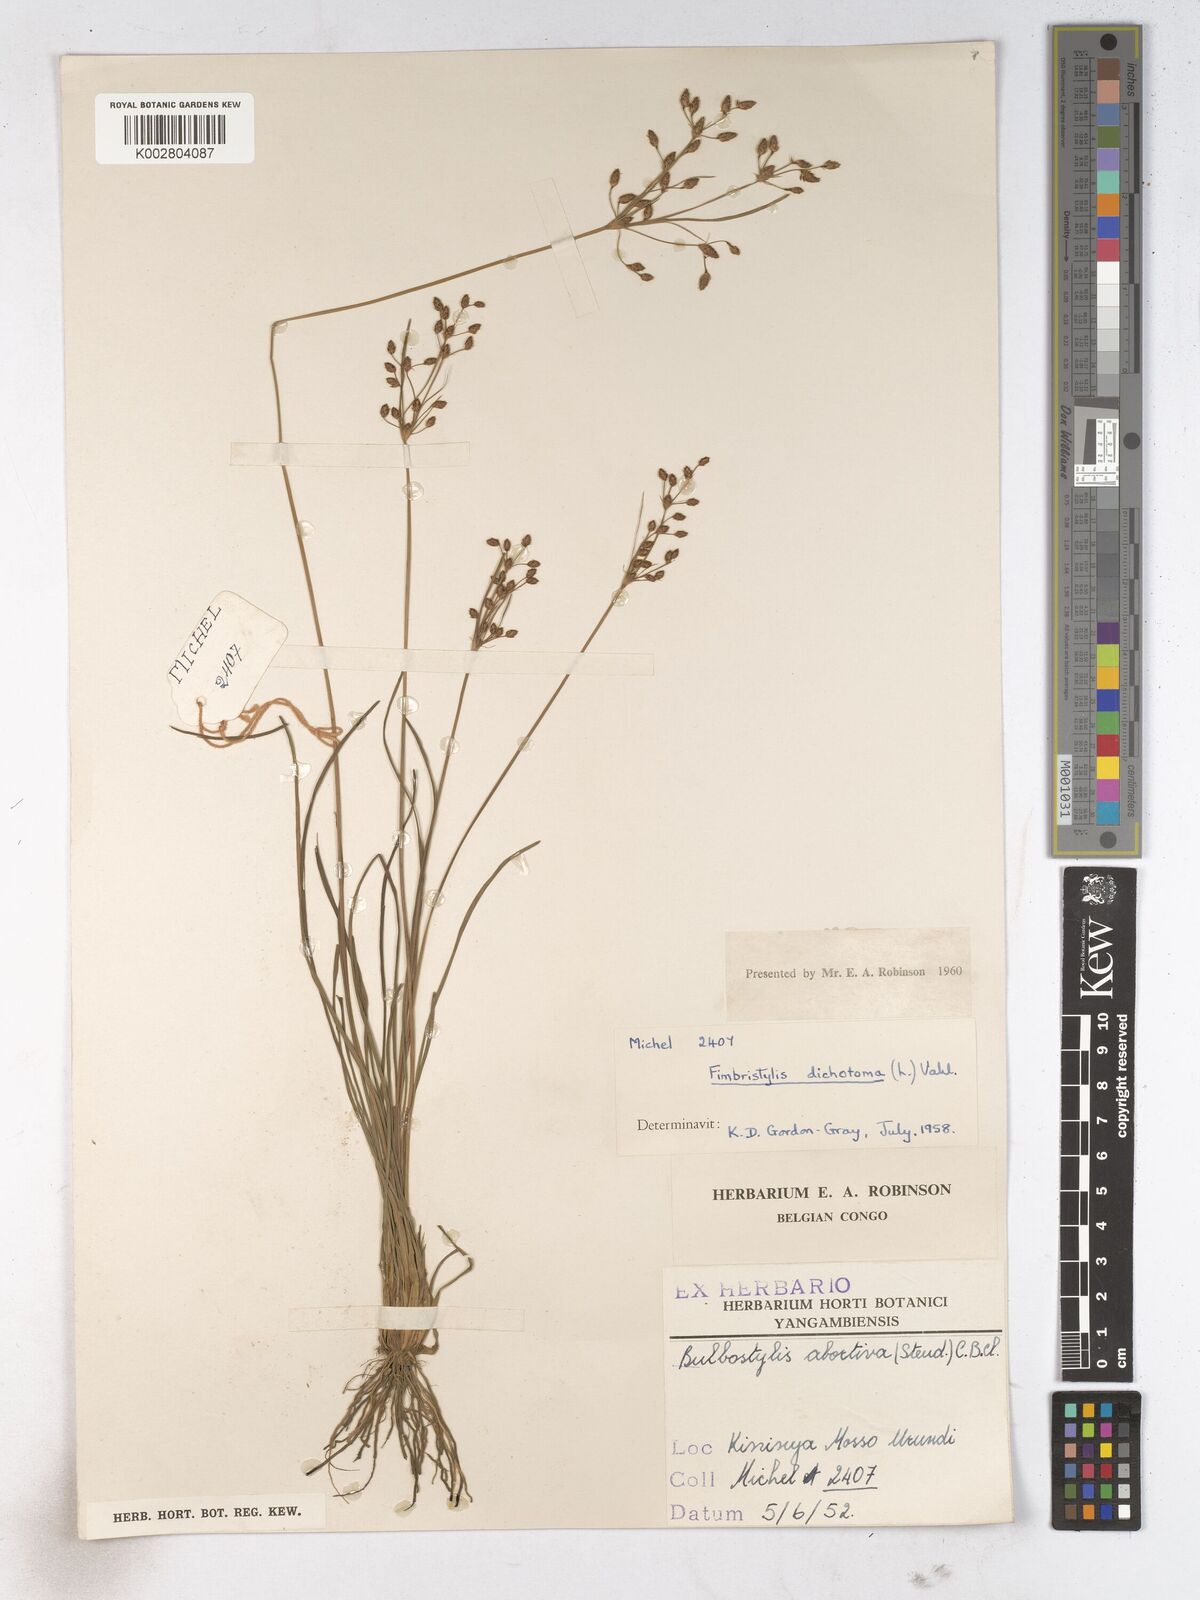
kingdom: Plantae
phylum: Tracheophyta
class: Liliopsida
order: Poales
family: Cyperaceae
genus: Fimbristylis
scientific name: Fimbristylis dichotoma
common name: Forked fimbry
